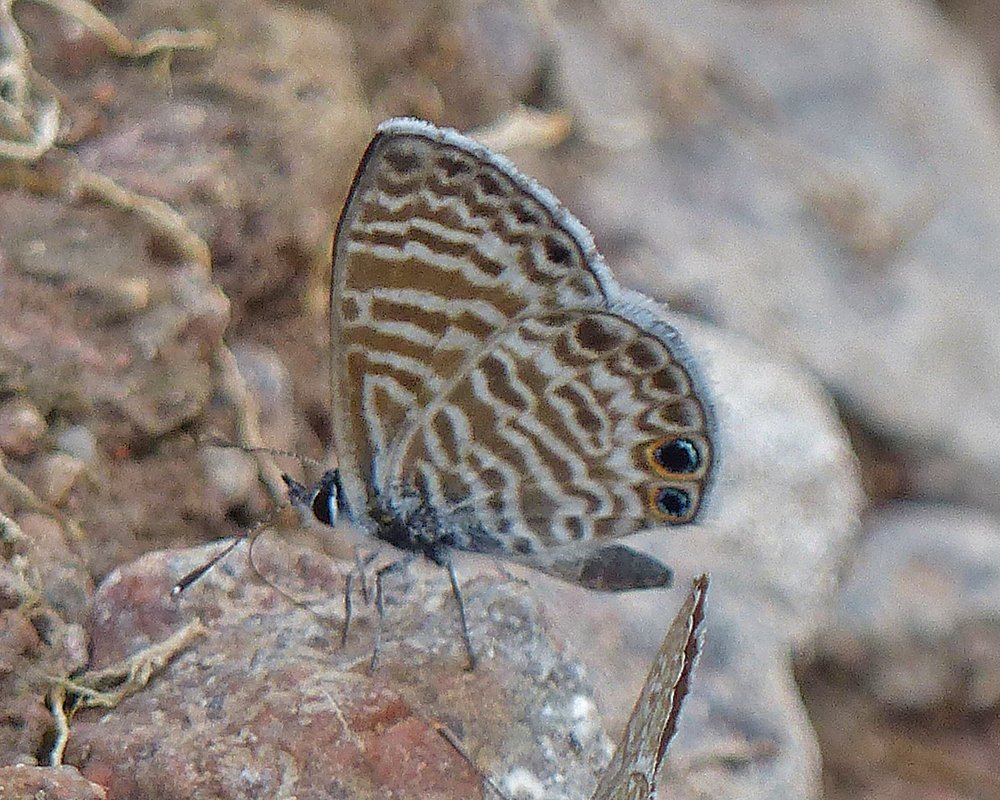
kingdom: Animalia
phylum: Arthropoda
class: Insecta
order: Lepidoptera
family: Lycaenidae
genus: Leptotes
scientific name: Leptotes marina
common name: Marine Blue
